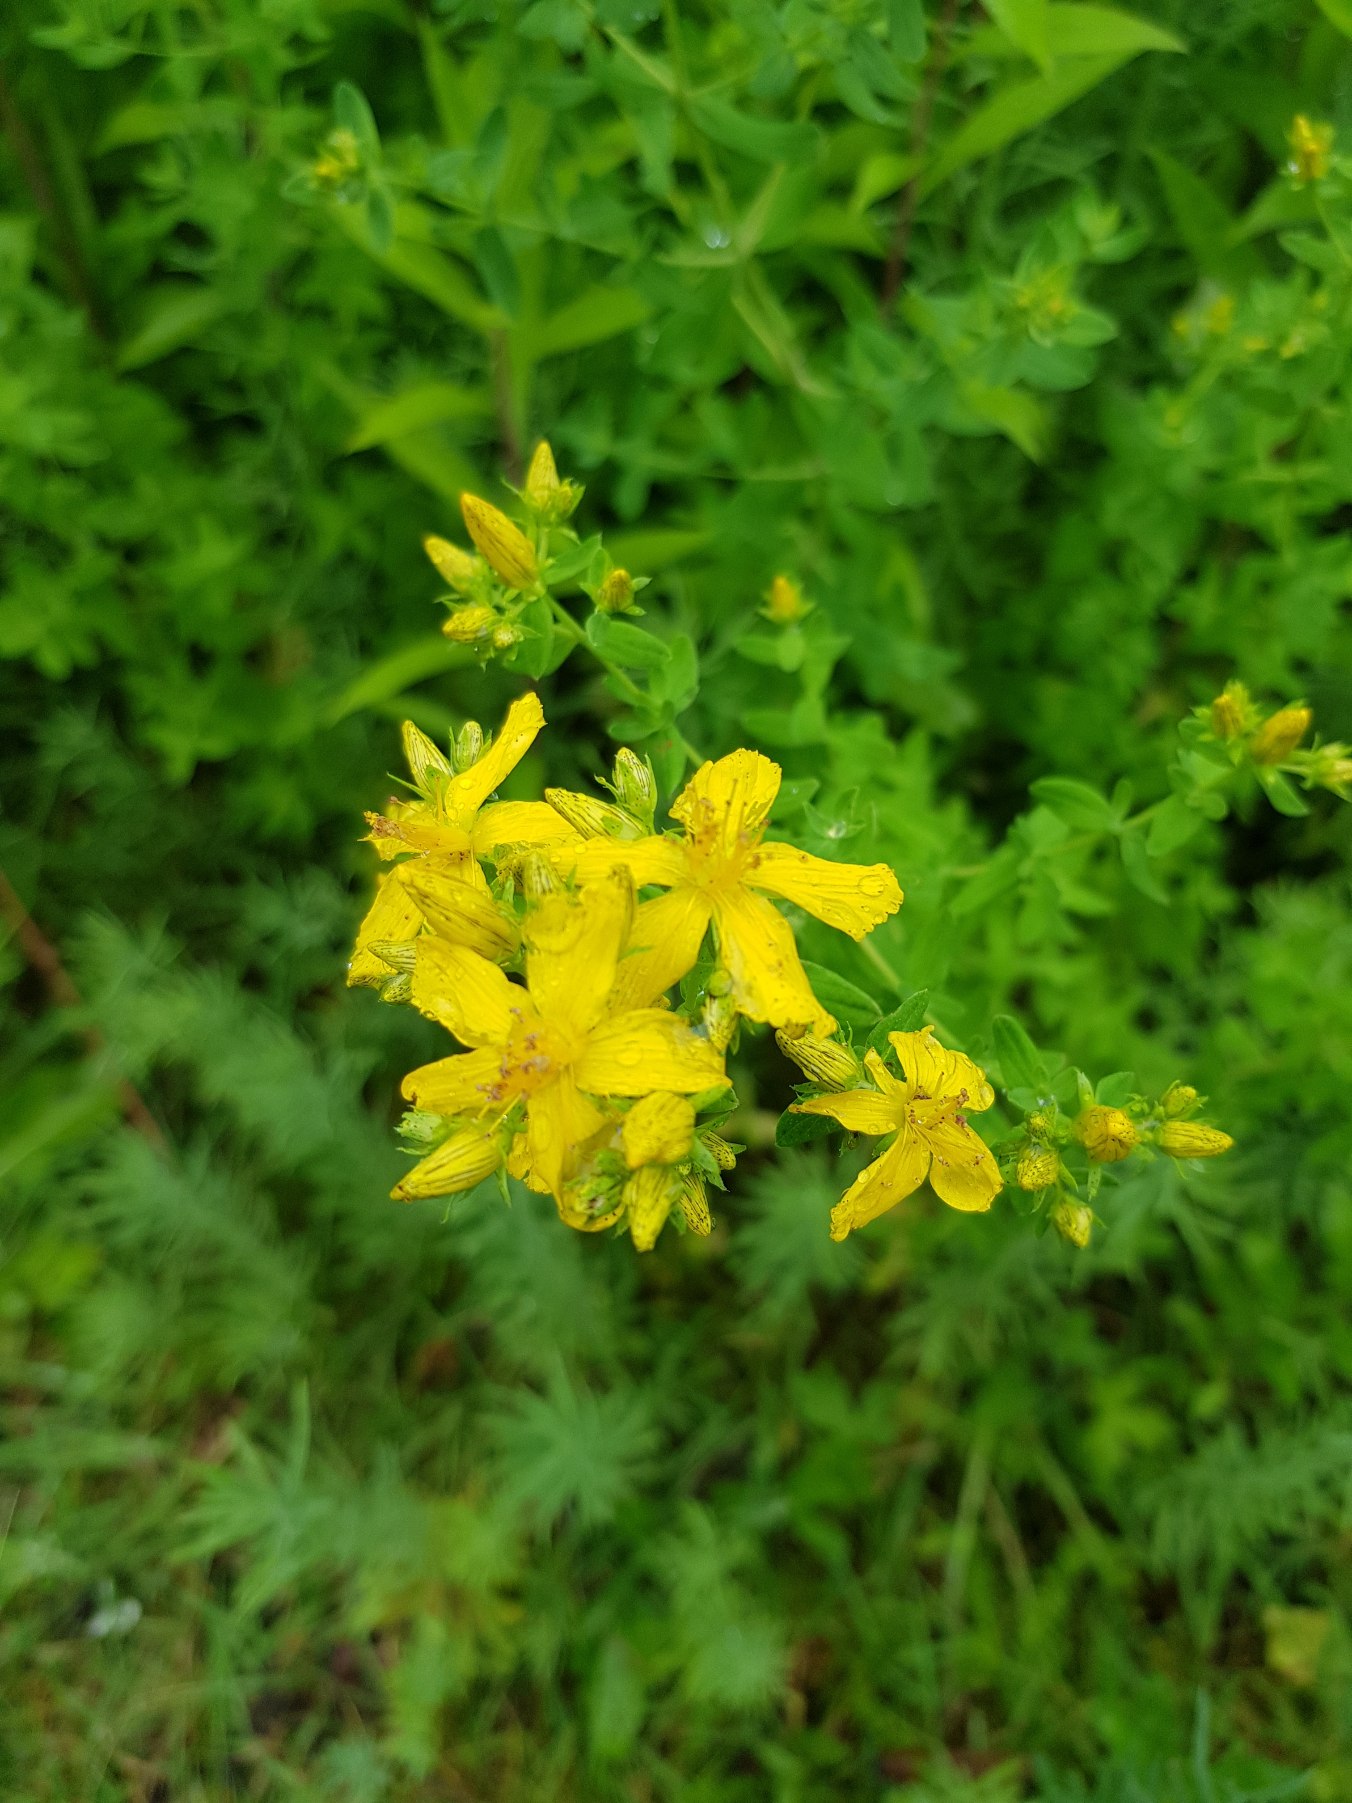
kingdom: Plantae
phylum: Tracheophyta
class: Magnoliopsida
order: Malpighiales
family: Hypericaceae
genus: Hypericum
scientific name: Hypericum perforatum
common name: Prikbladet perikon
